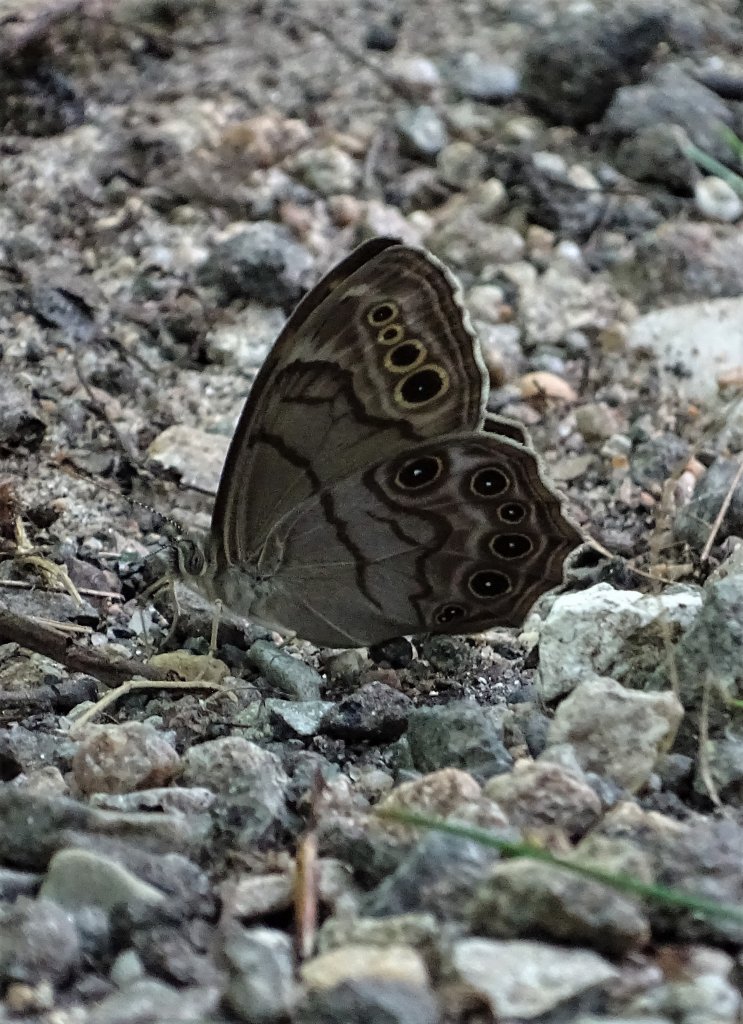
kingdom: Animalia
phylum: Arthropoda
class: Insecta
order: Lepidoptera
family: Nymphalidae
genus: Lethe
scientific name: Lethe anthedon
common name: Northern Pearly-Eye
